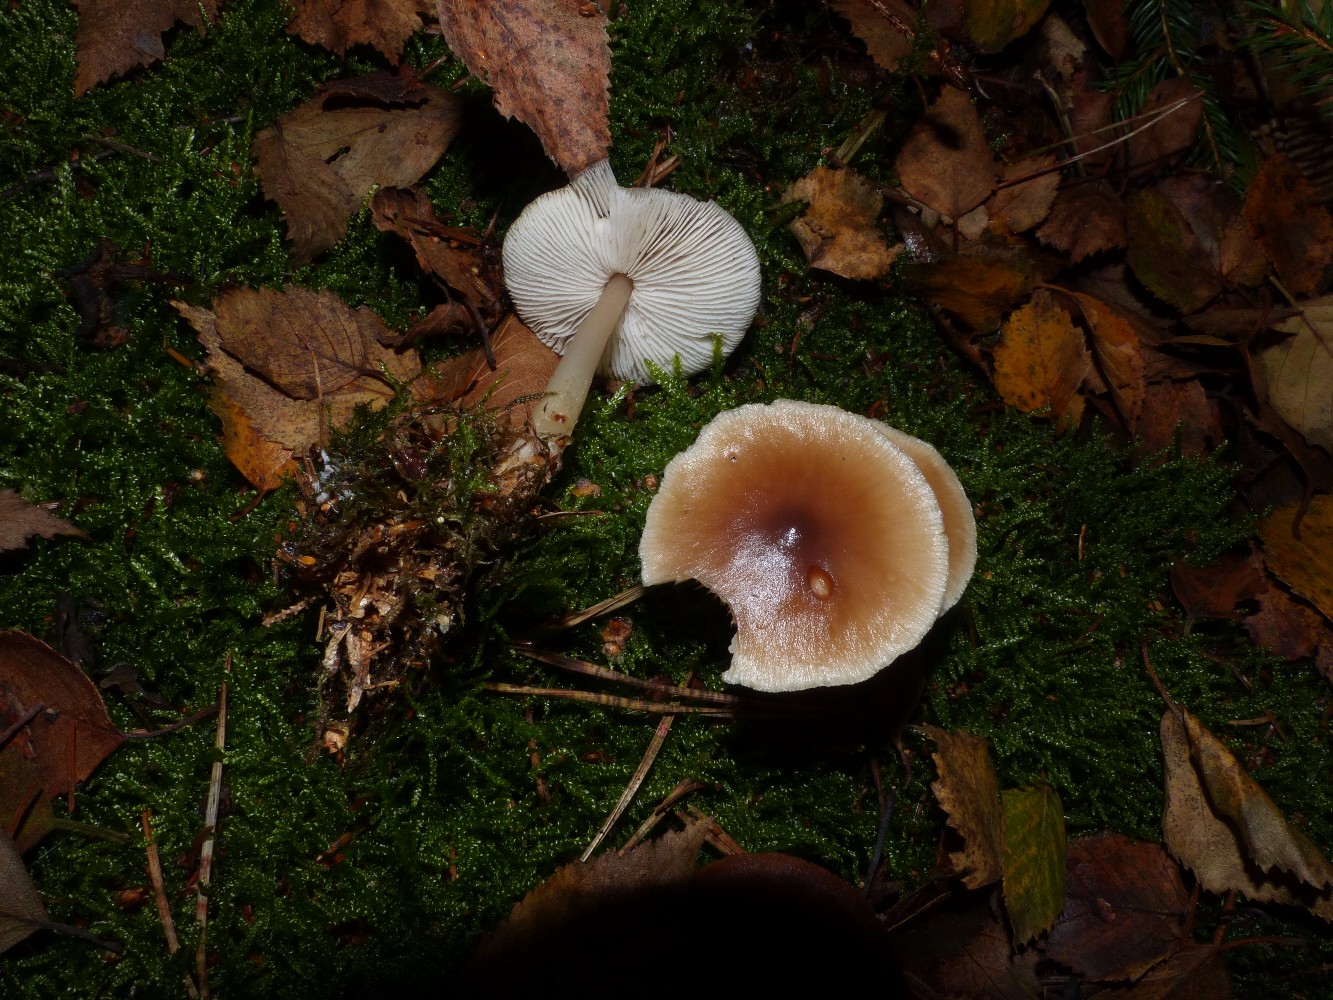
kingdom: Fungi
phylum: Basidiomycota
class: Agaricomycetes
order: Agaricales
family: Omphalotaceae
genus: Rhodocollybia
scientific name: Rhodocollybia asema
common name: horngrå fladhat
